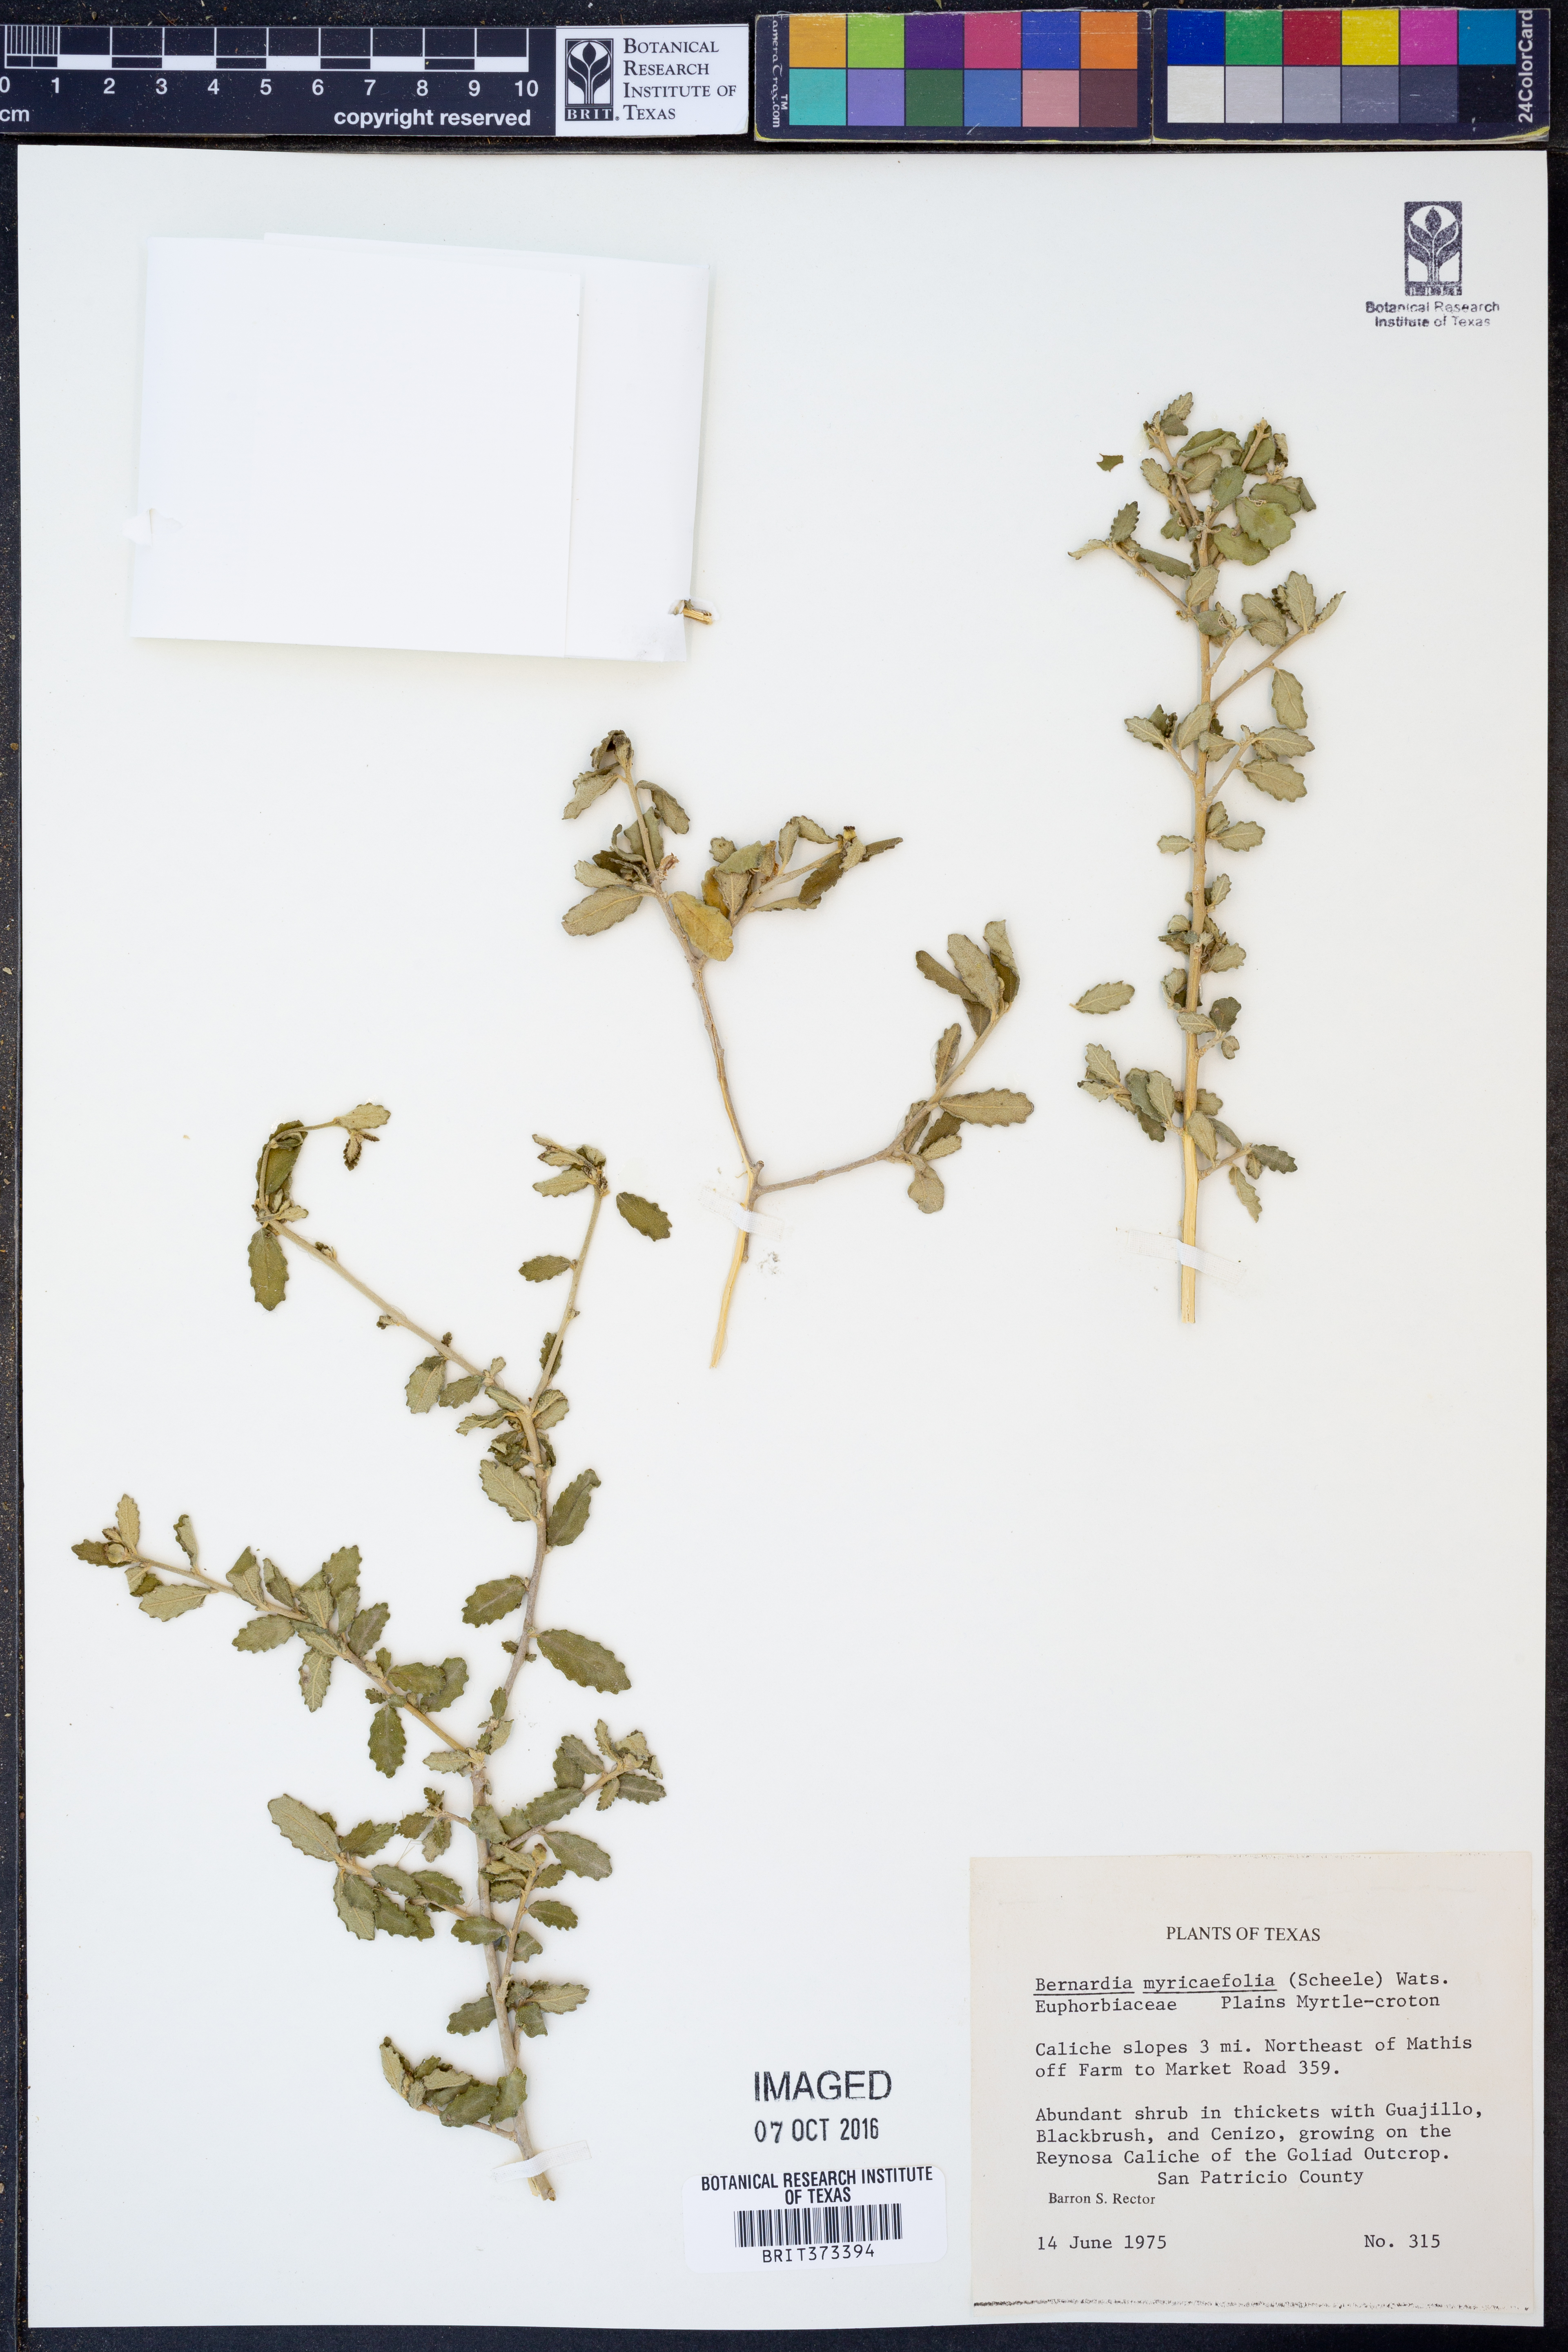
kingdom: Plantae
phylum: Tracheophyta
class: Magnoliopsida
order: Malpighiales
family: Euphorbiaceae
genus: Bernardia
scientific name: Bernardia myricifolia
